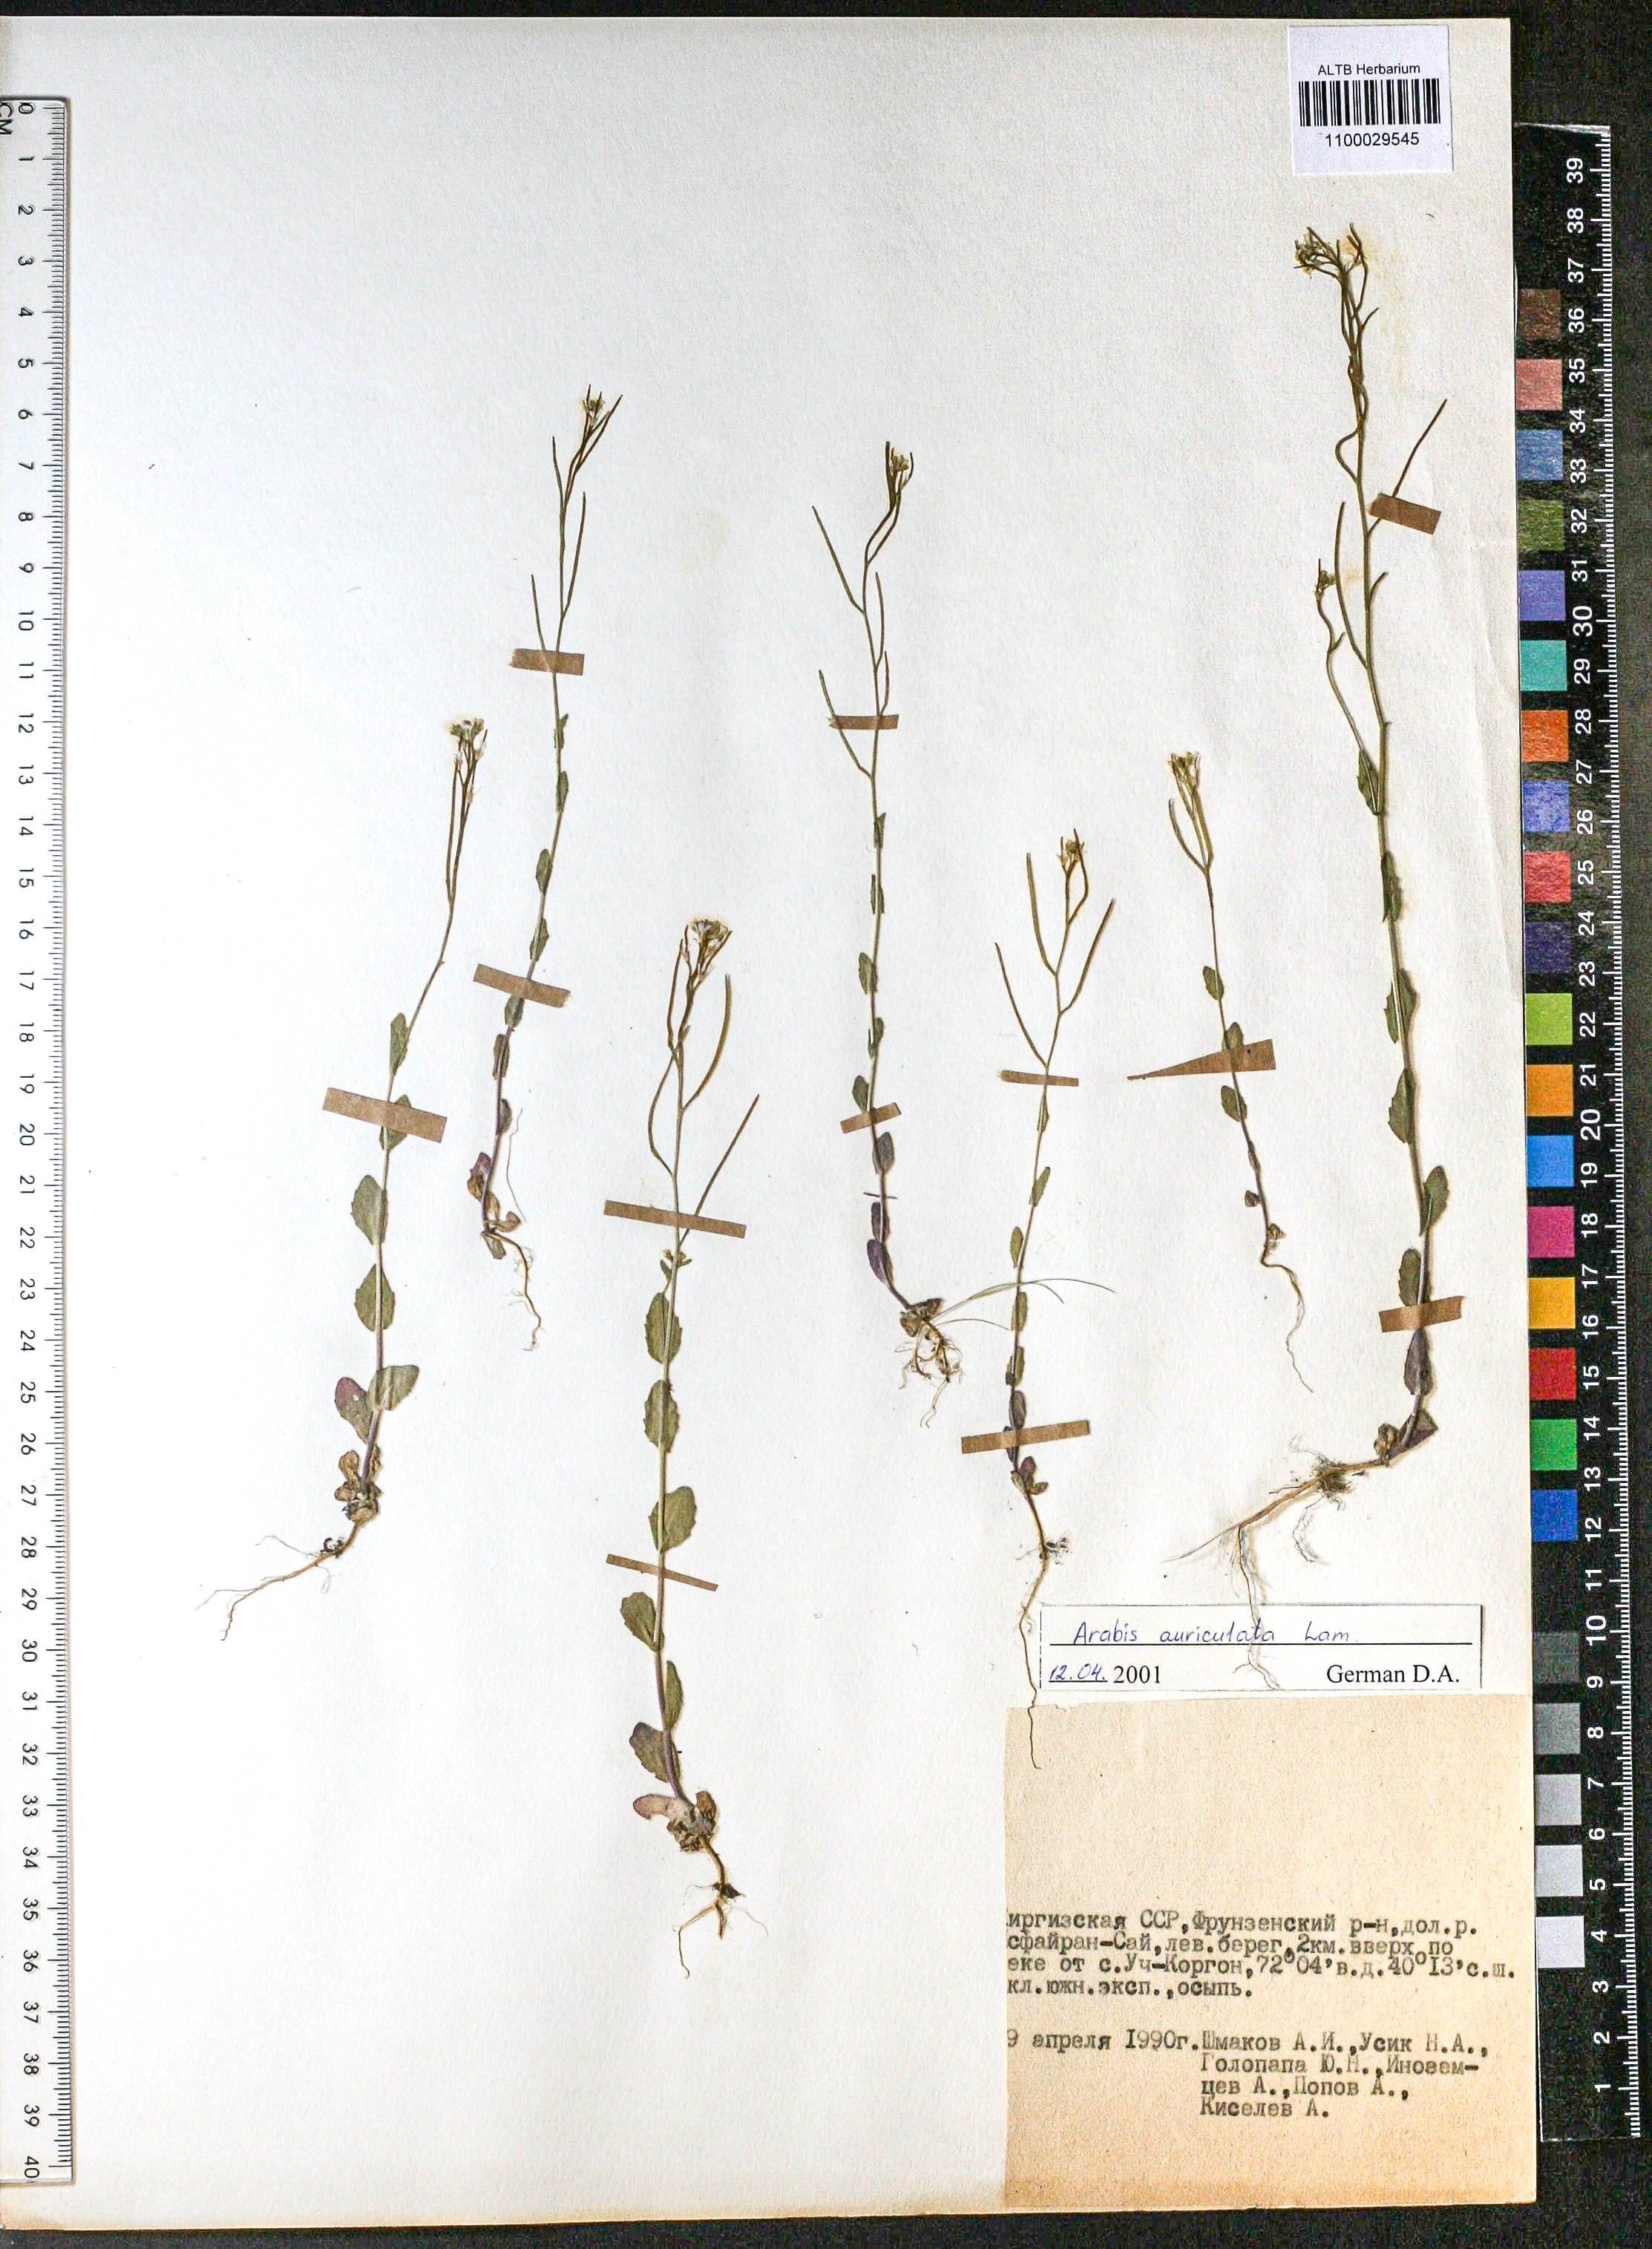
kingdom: Plantae
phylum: Tracheophyta
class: Magnoliopsida
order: Brassicales
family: Brassicaceae
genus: Arabis
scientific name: Arabis auriculata
